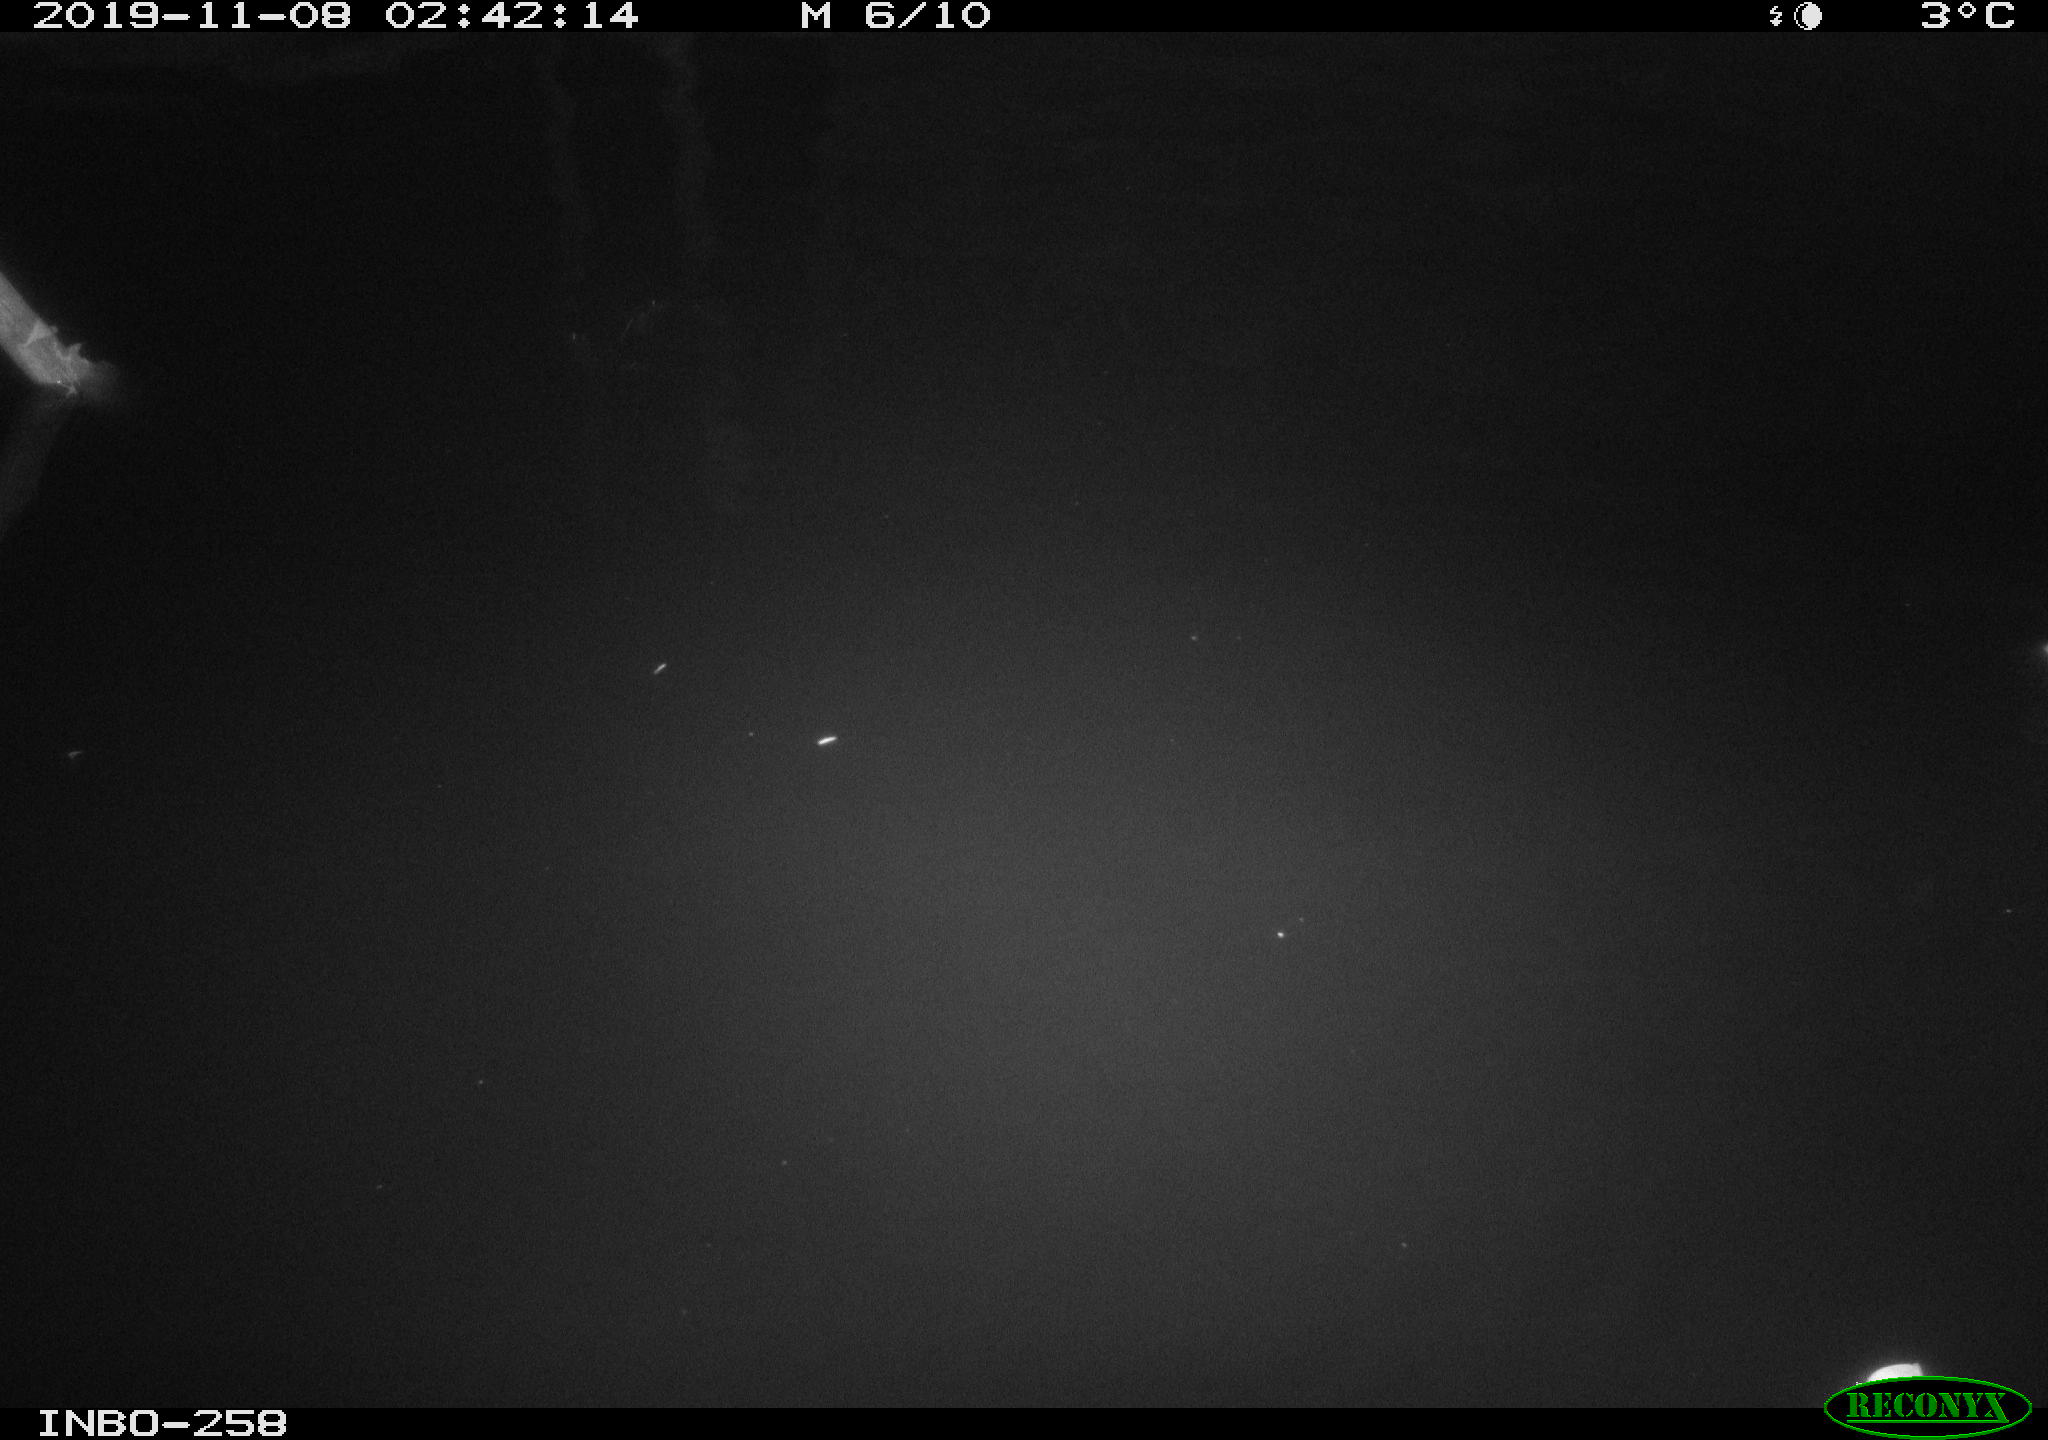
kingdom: Animalia
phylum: Chordata
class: Aves
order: Anseriformes
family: Anatidae
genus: Anas
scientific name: Anas platyrhynchos
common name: Mallard
